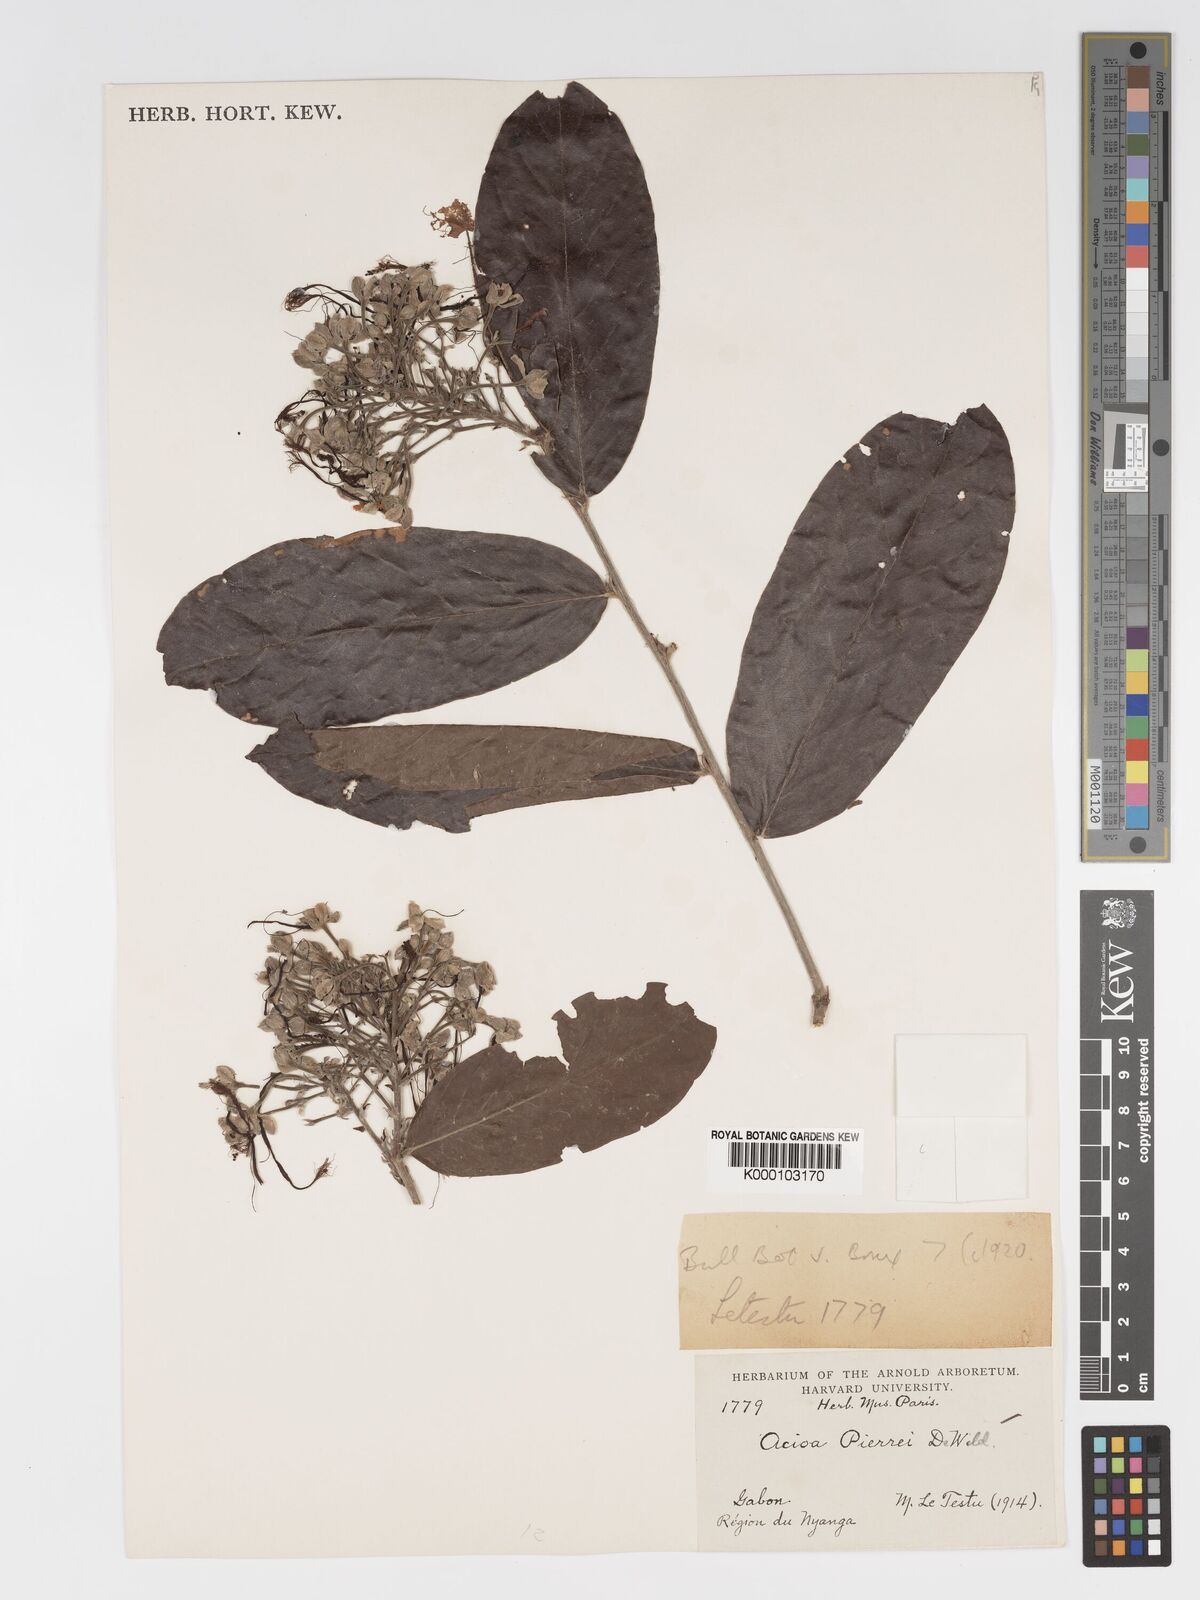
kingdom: Plantae
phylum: Tracheophyta
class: Magnoliopsida
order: Malpighiales
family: Chrysobalanaceae
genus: Dactyladenia
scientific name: Dactyladenia pierrei
